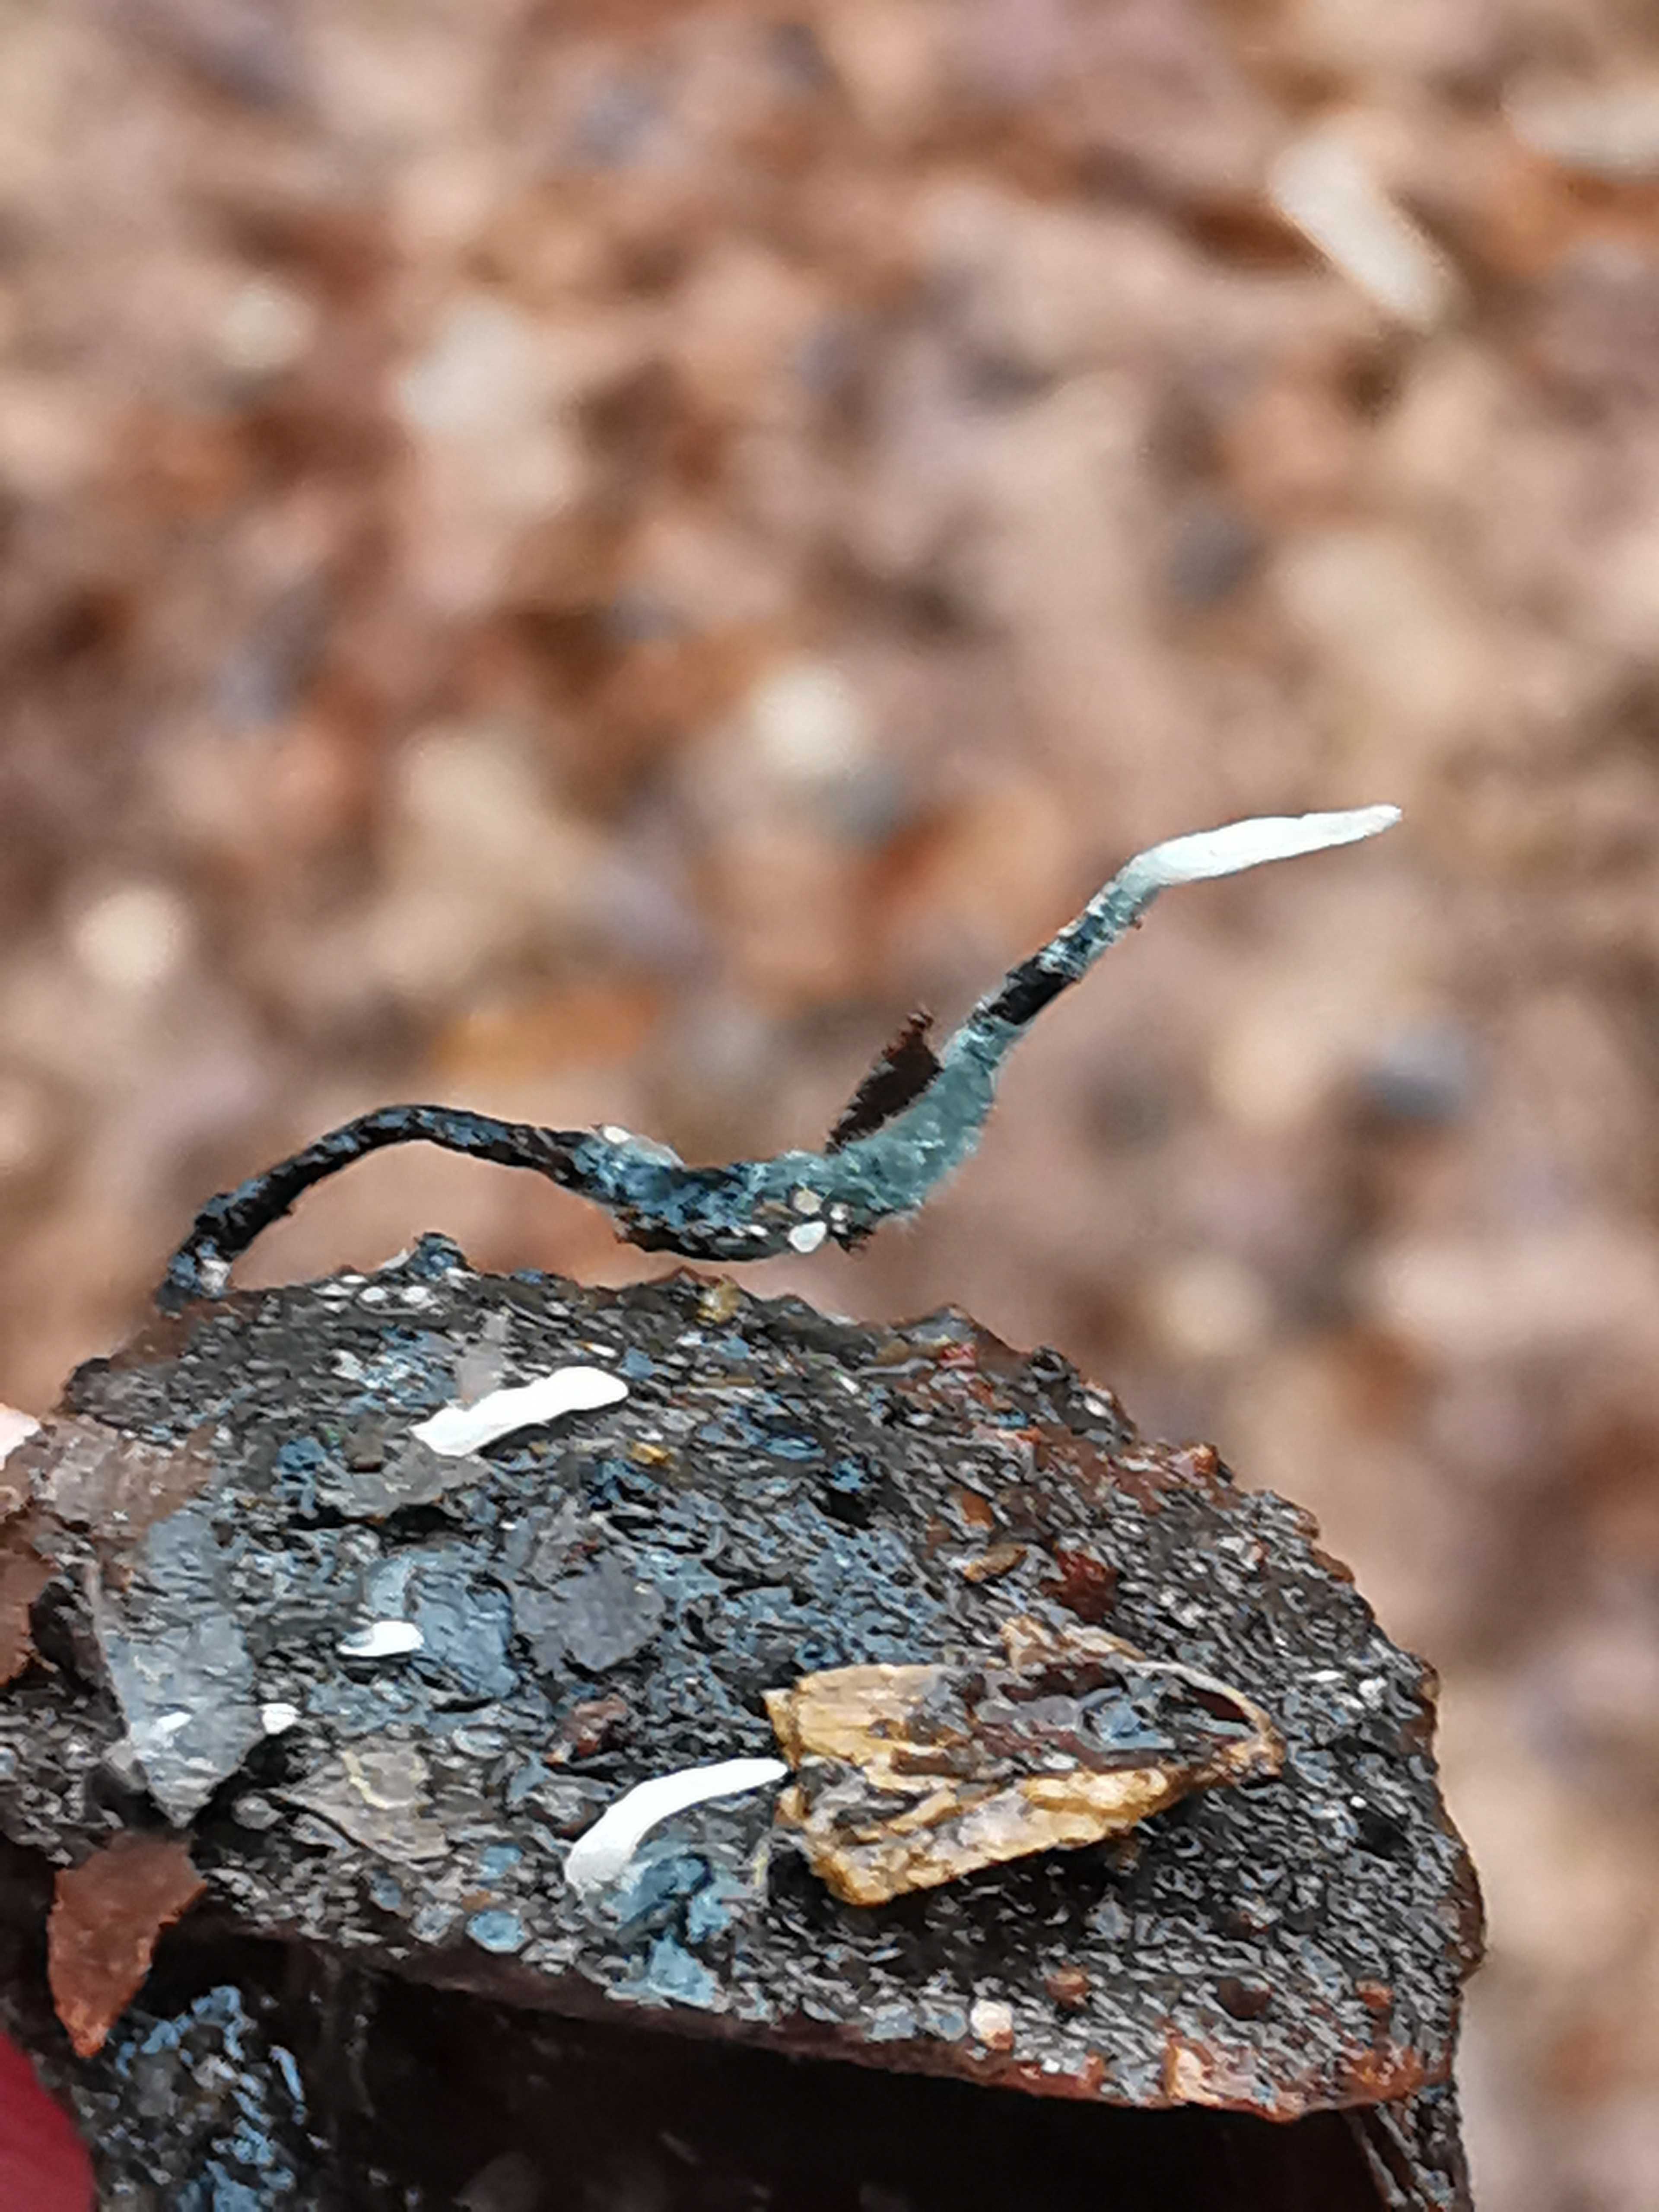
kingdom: Fungi
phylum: Ascomycota
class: Sordariomycetes
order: Xylariales
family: Xylariaceae
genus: Xylaria
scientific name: Xylaria carpophila
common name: bogskål-stødsvamp
